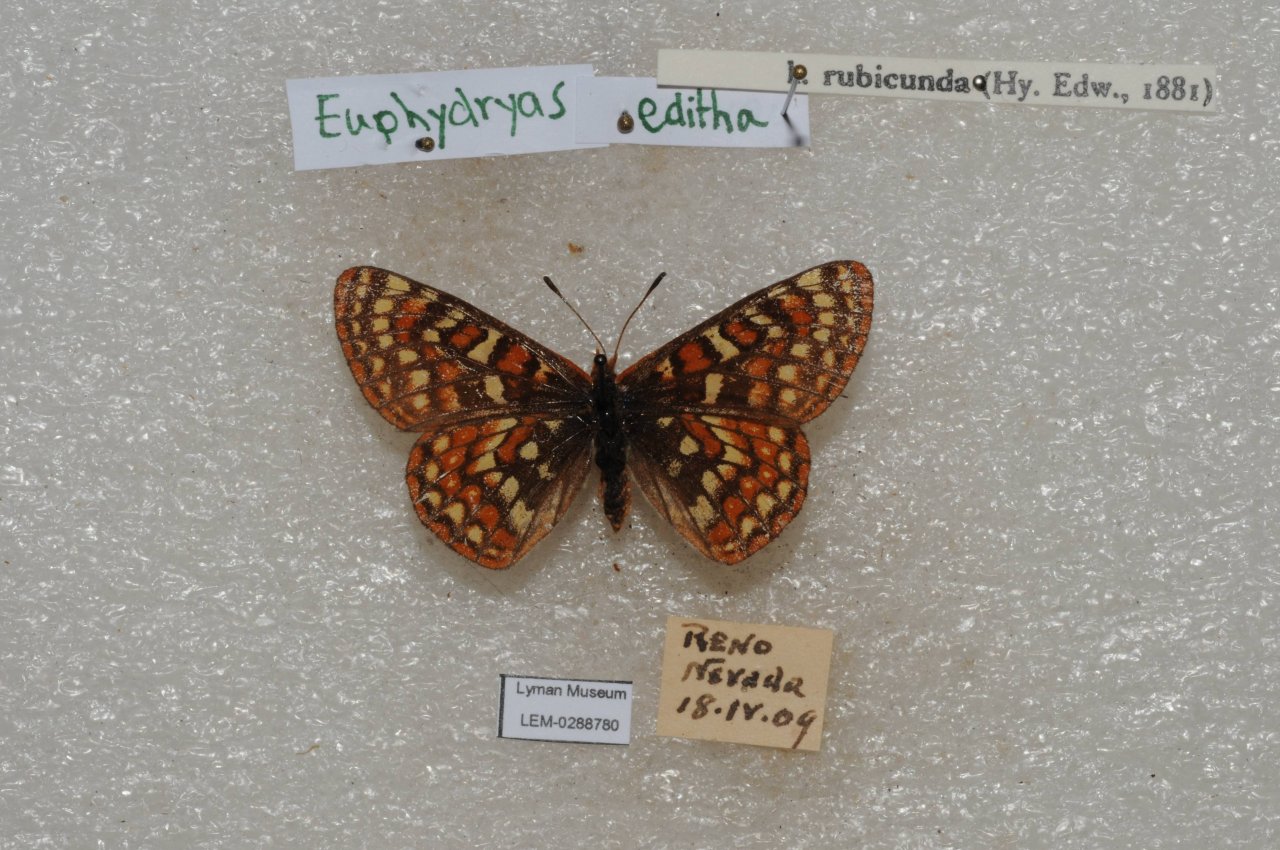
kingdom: Animalia
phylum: Arthropoda
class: Insecta
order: Lepidoptera
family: Nymphalidae
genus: Occidryas
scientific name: Occidryas editha
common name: Edith's Checkerspot
